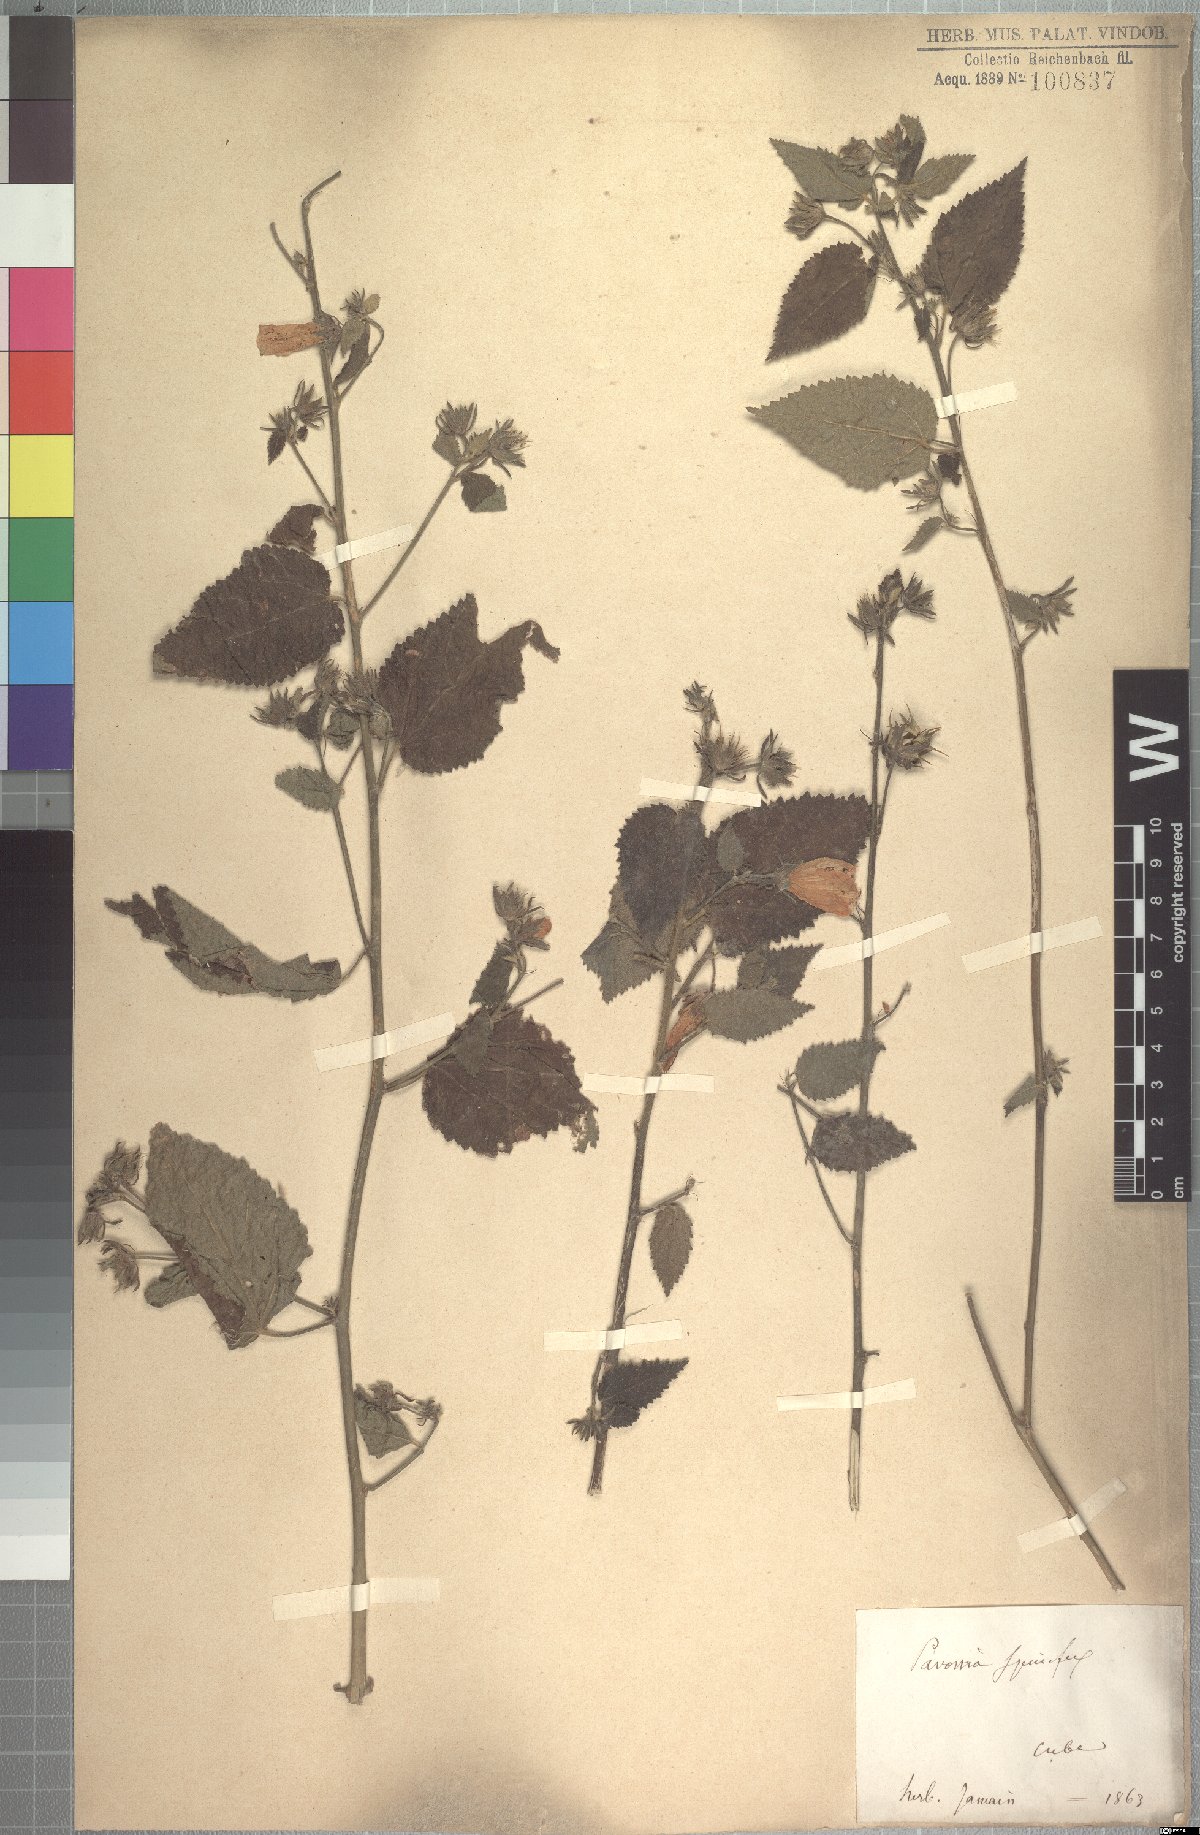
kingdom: Plantae
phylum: Tracheophyta
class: Magnoliopsida
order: Malvales
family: Malvaceae
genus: Pavonia
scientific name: Pavonia spinifex
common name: Ginger bush
